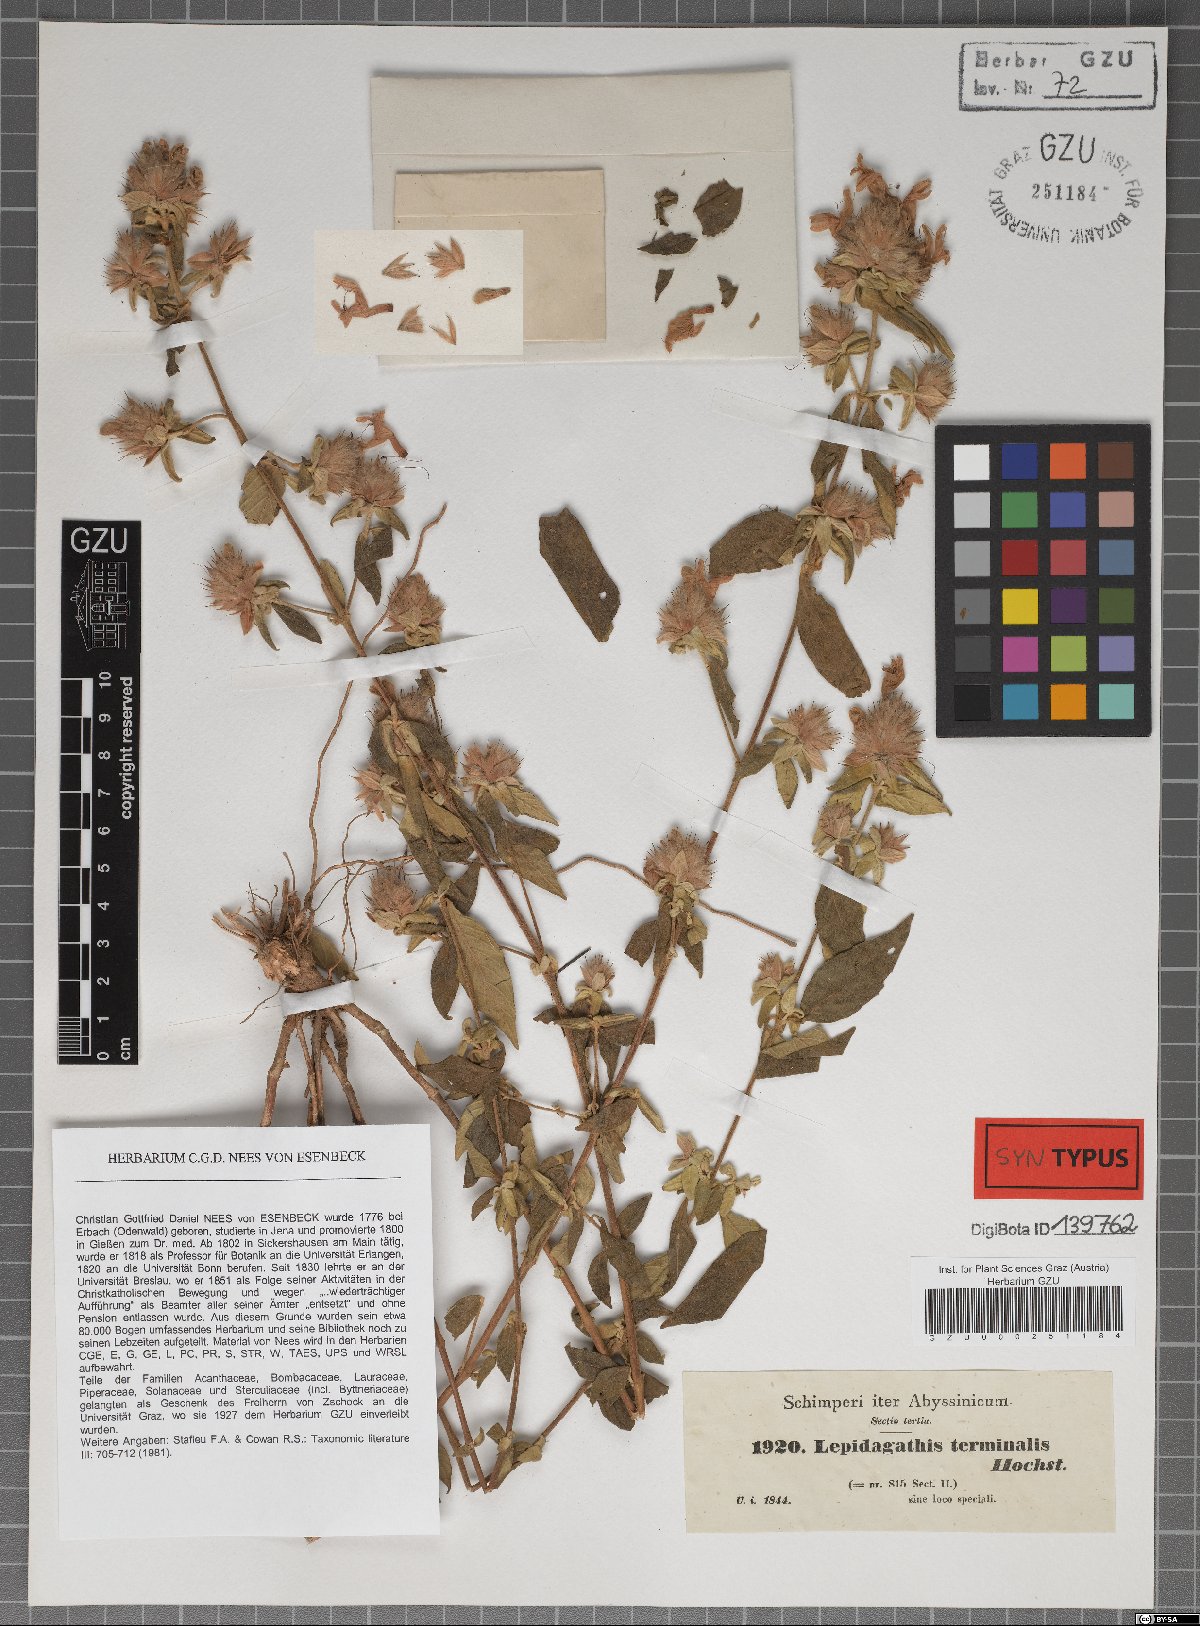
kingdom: Plantae
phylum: Tracheophyta
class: Magnoliopsida
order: Lamiales
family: Acanthaceae
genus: Lepidagathis
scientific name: Lepidagathis scariosa
